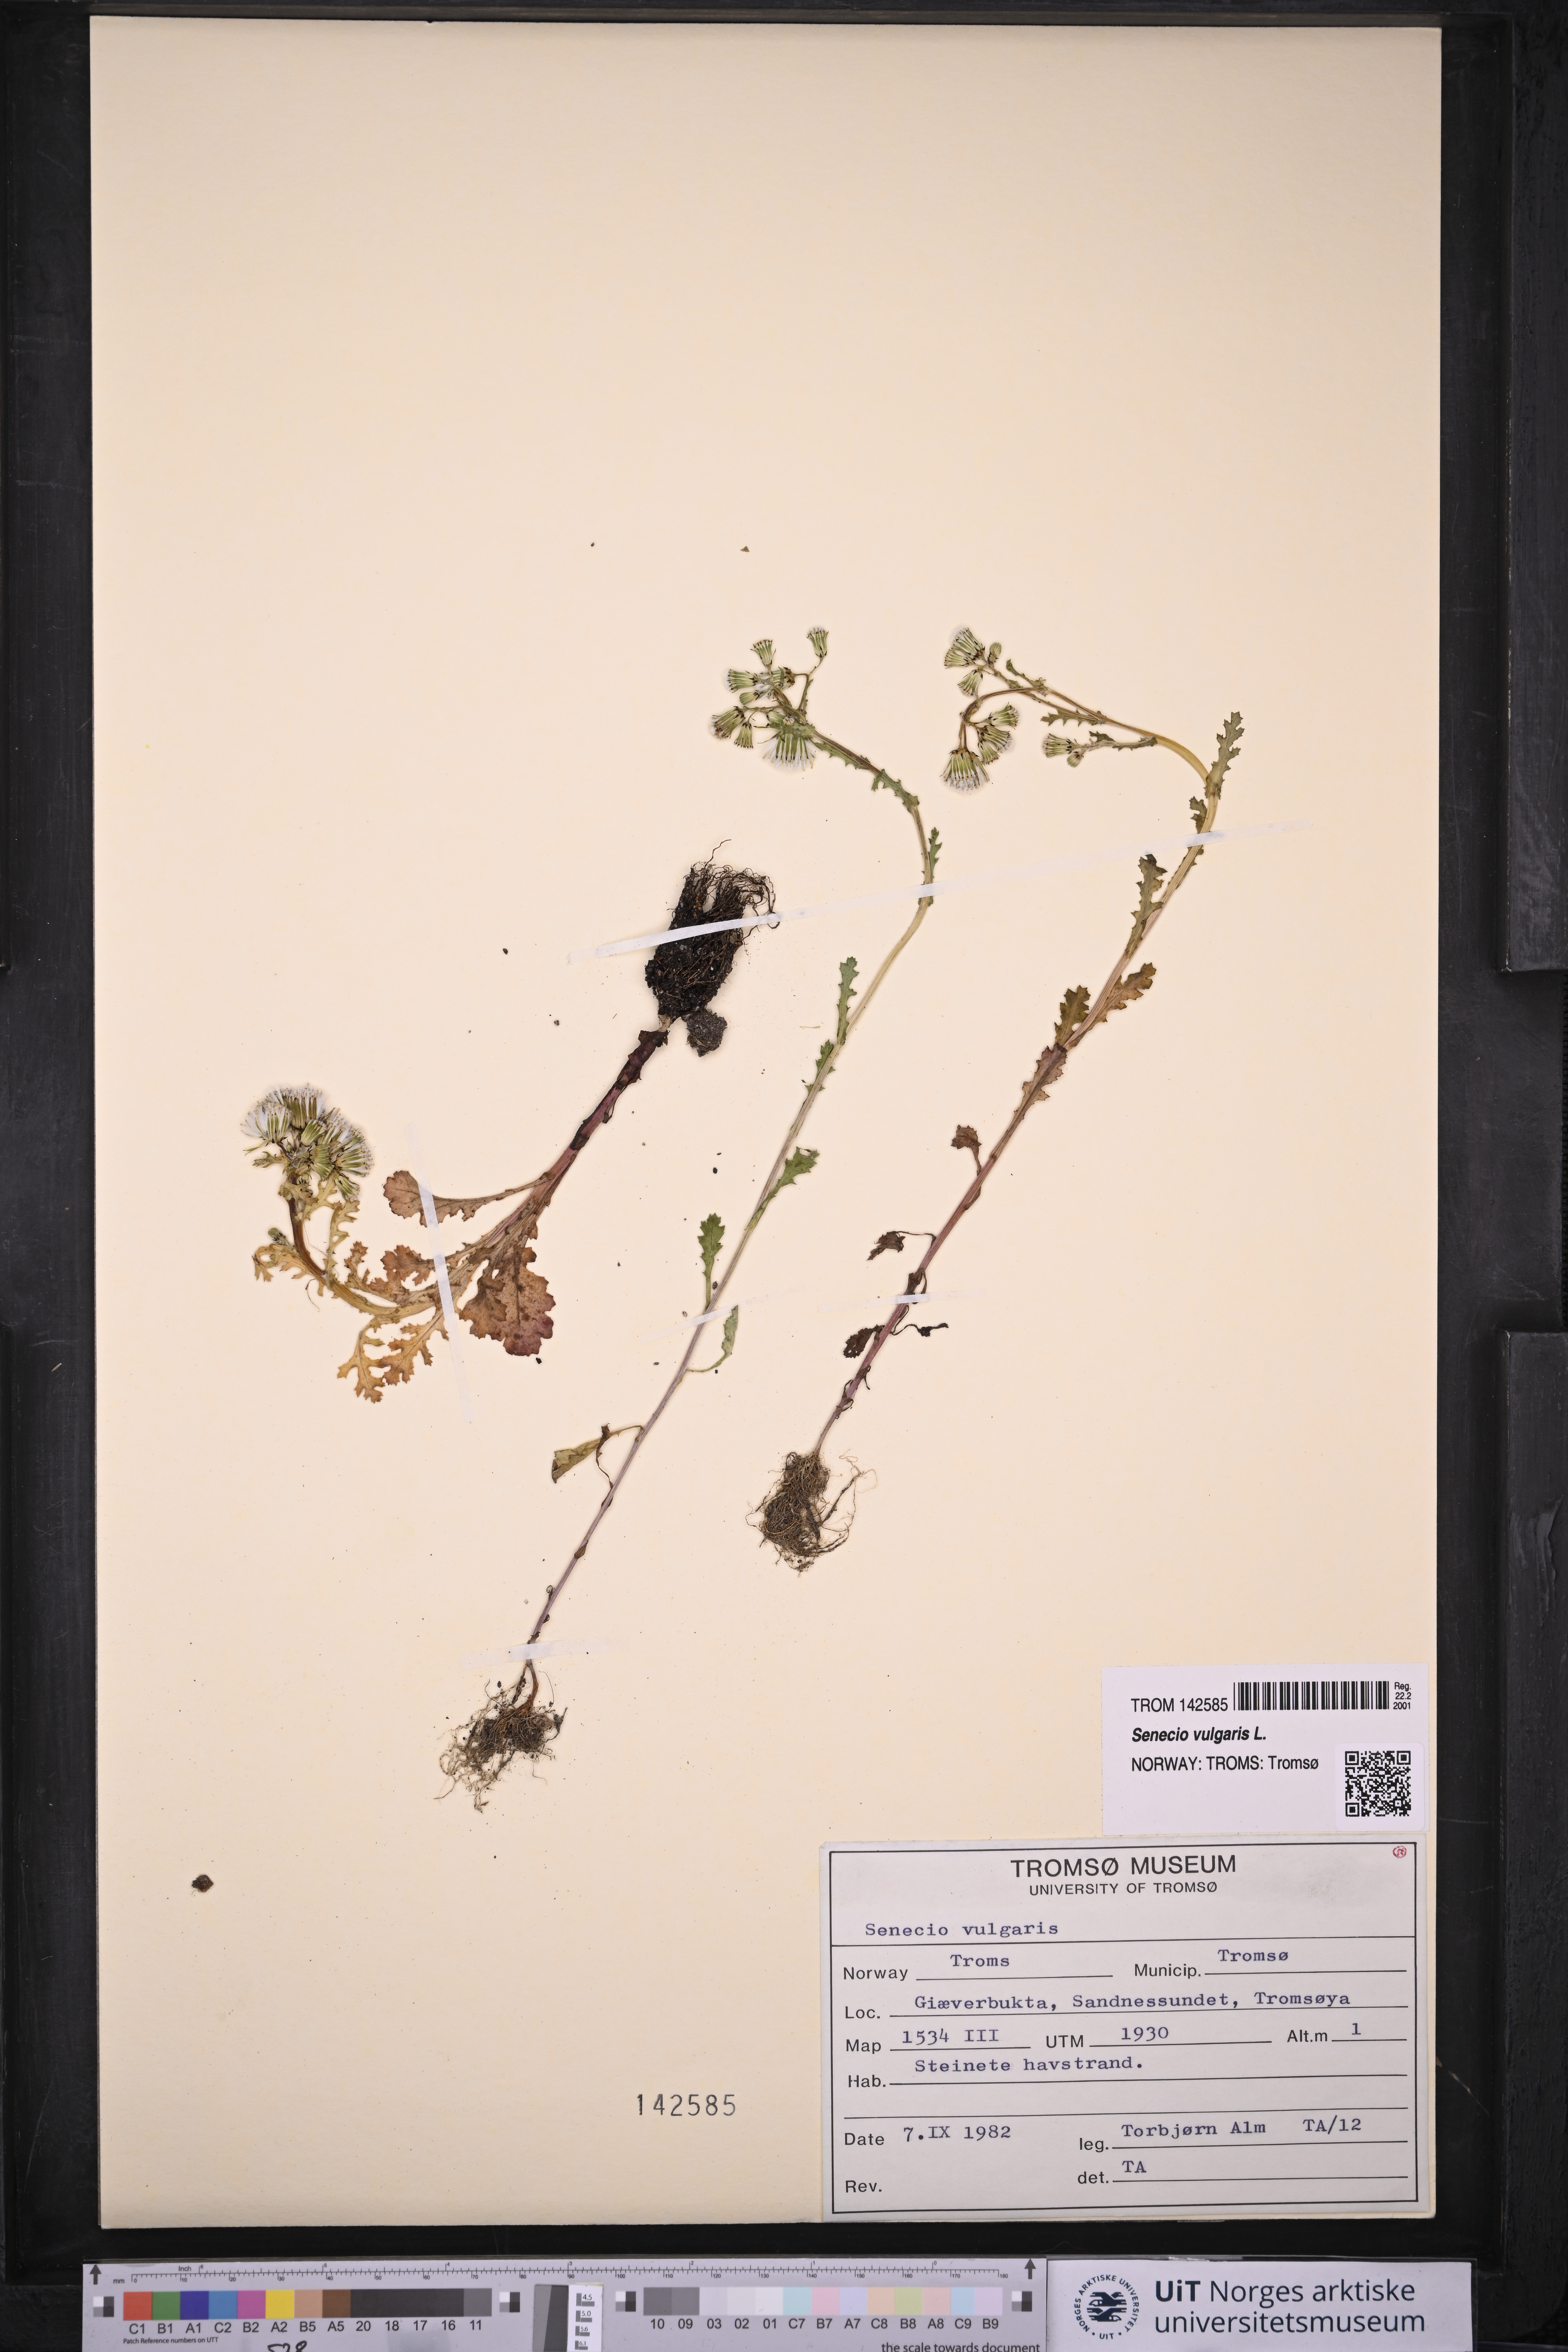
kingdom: Plantae
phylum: Tracheophyta
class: Magnoliopsida
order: Asterales
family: Asteraceae
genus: Senecio
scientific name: Senecio vulgaris
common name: Old-man-in-the-spring
